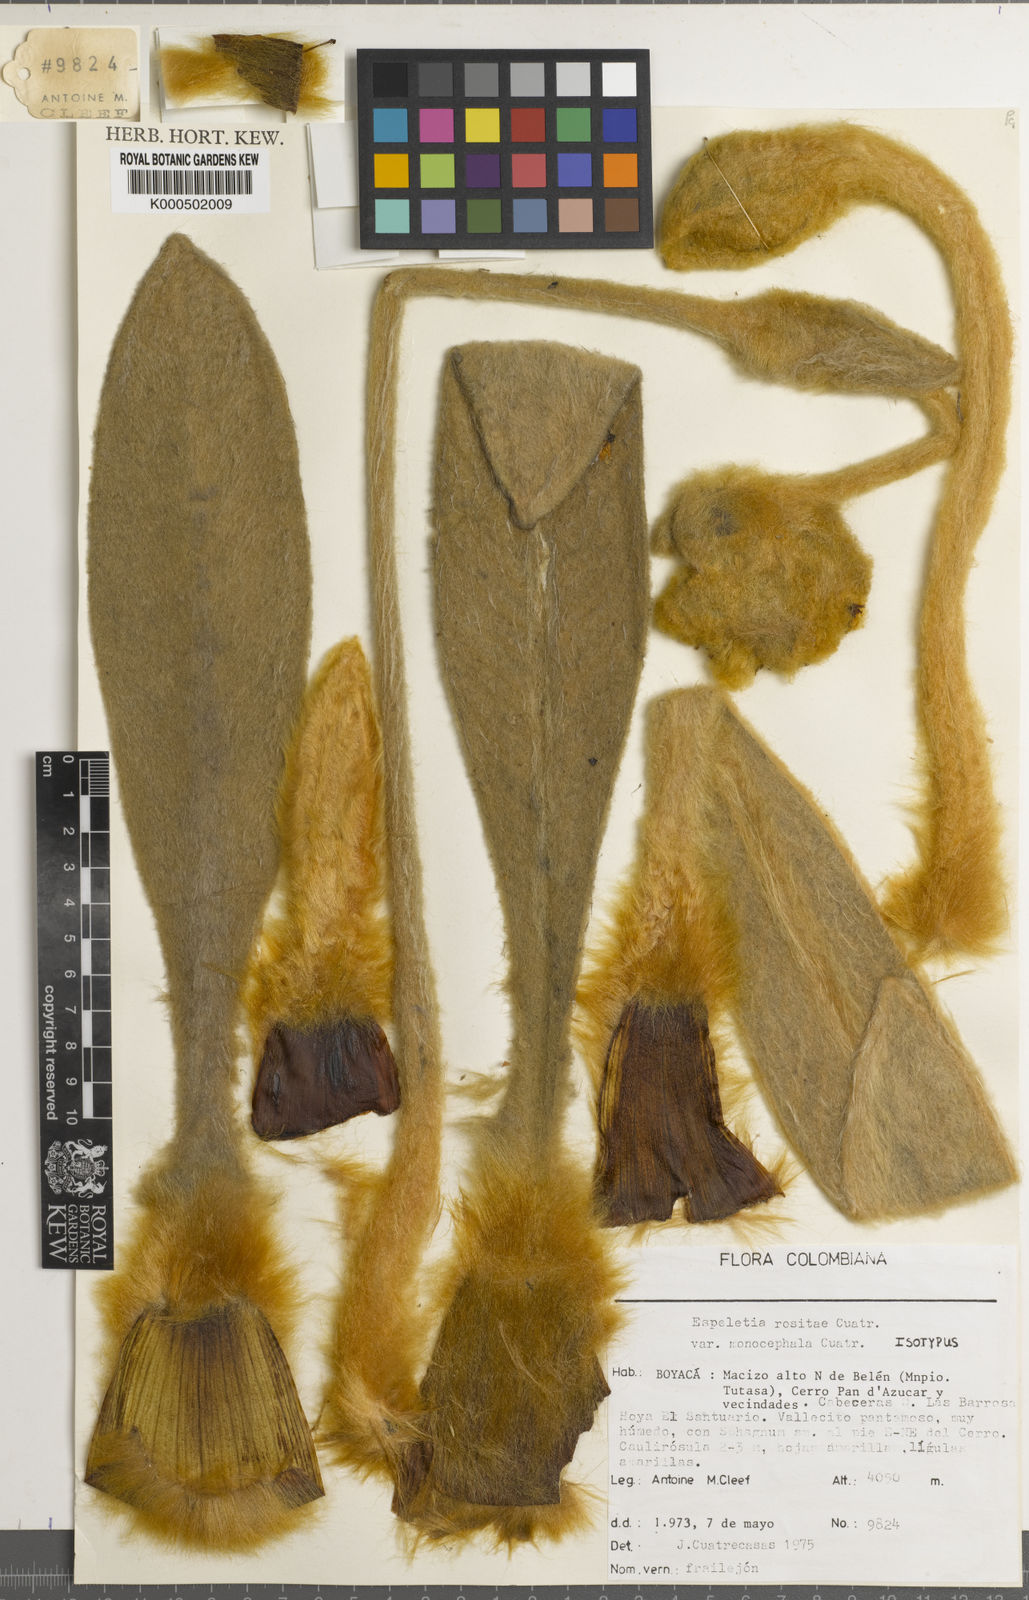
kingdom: Plantae
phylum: Tracheophyta
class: Magnoliopsida
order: Asterales
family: Asteraceae
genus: Espeletia
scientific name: Espeletia rositae
